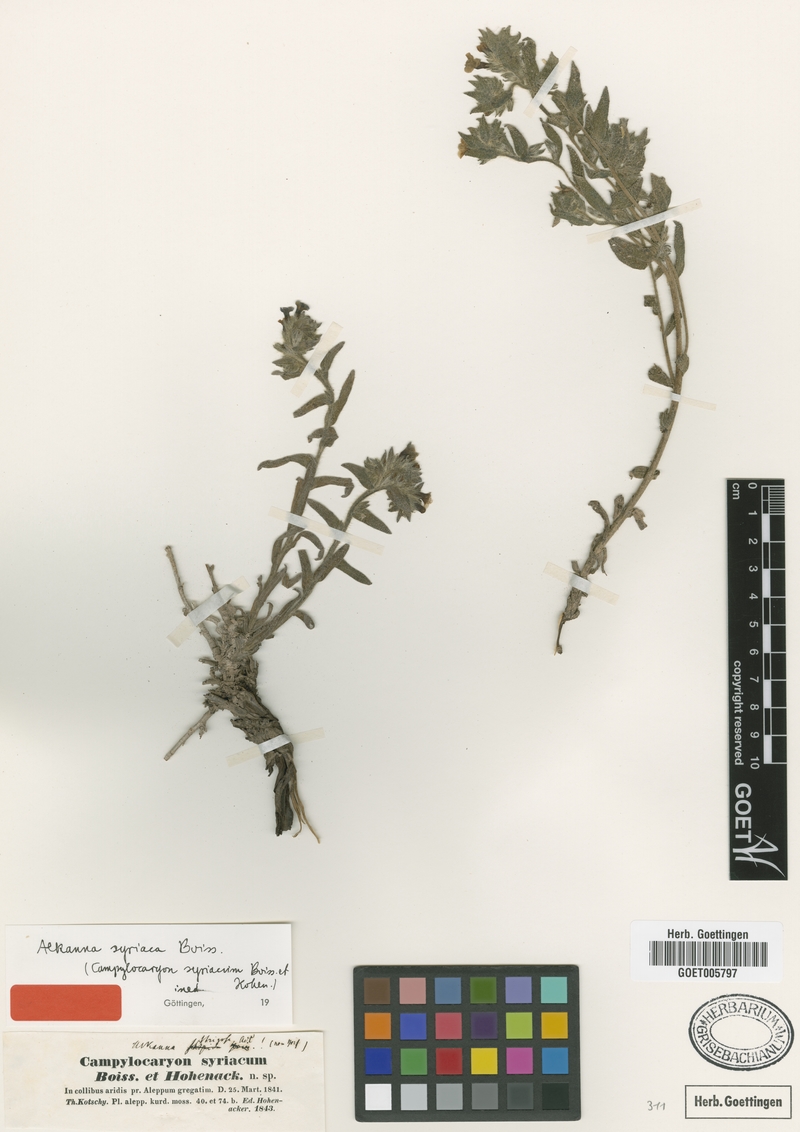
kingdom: Plantae
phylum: Tracheophyta
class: Magnoliopsida
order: Boraginales
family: Boraginaceae
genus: Alkanna
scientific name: Alkanna strigosa
